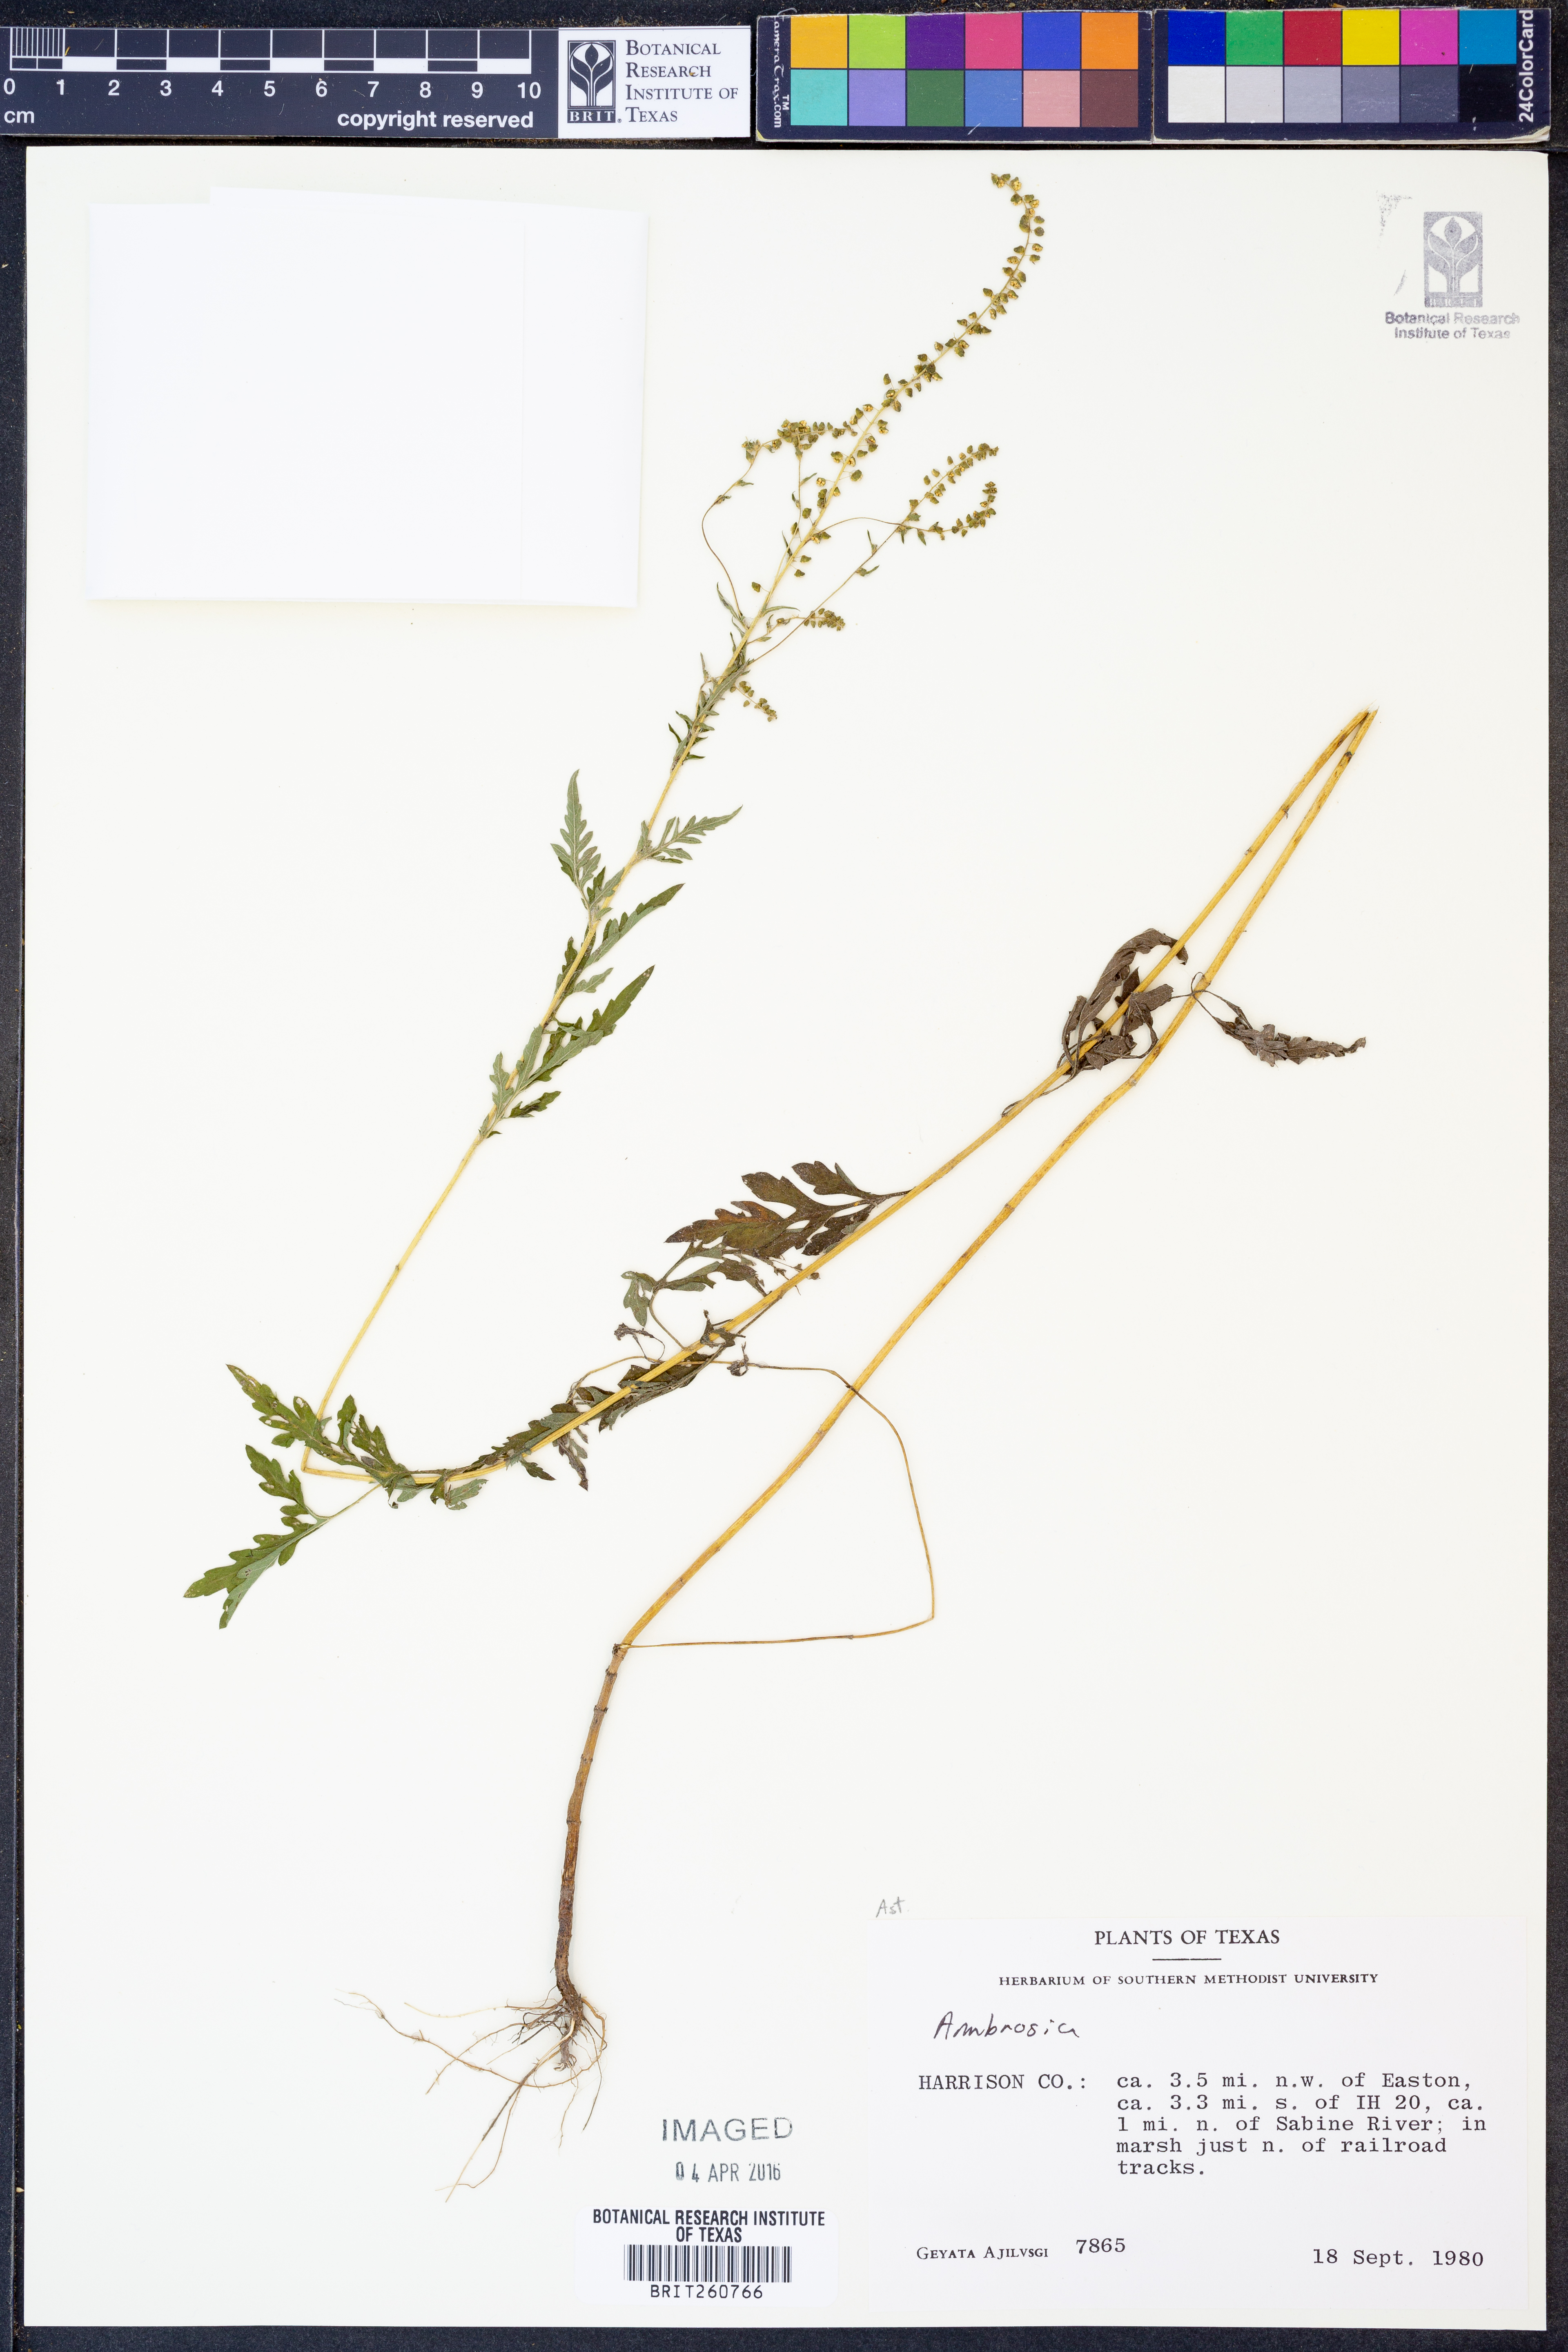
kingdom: Plantae
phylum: Tracheophyta
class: Magnoliopsida
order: Asterales
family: Asteraceae
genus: Ambrosia
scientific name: Ambrosia
